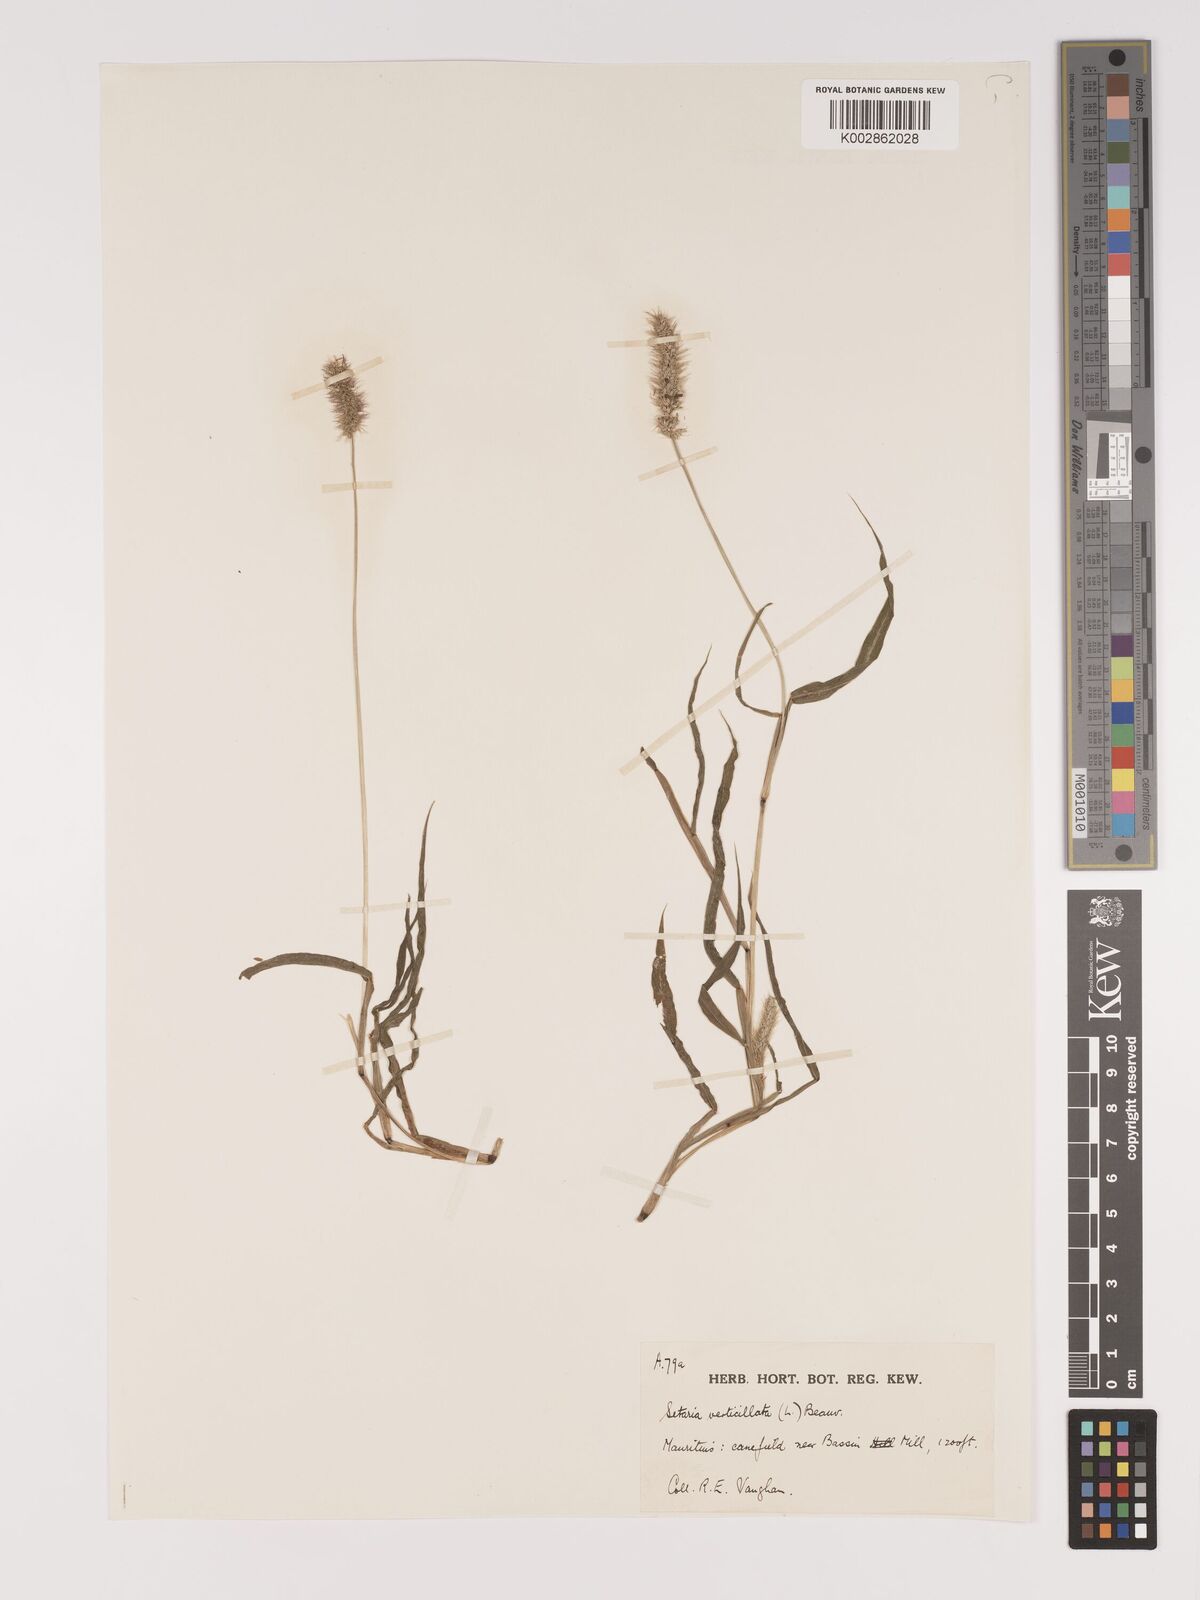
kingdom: Plantae
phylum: Tracheophyta
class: Liliopsida
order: Poales
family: Poaceae
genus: Setaria
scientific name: Setaria verticillata
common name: Hooked bristlegrass
